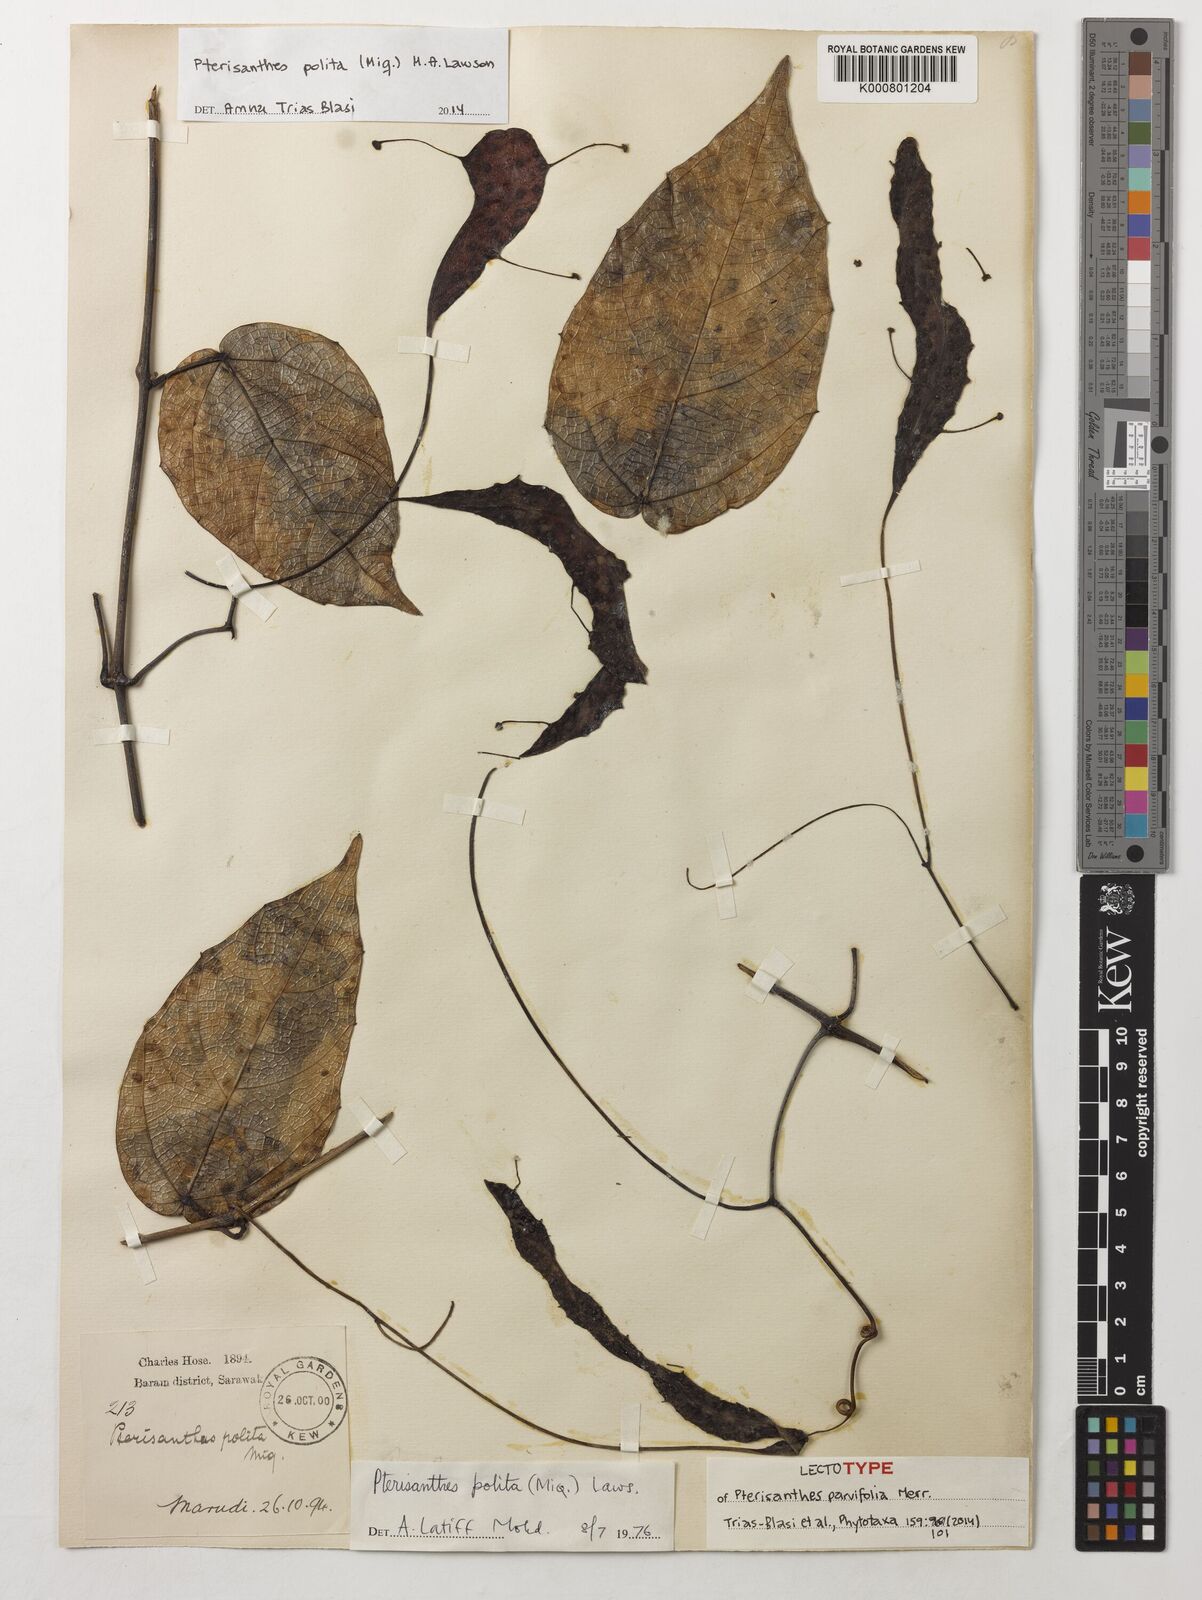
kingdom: Plantae
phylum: Tracheophyta
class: Magnoliopsida
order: Vitales
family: Vitaceae
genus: Ampelocissus
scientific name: Ampelocissus polita
